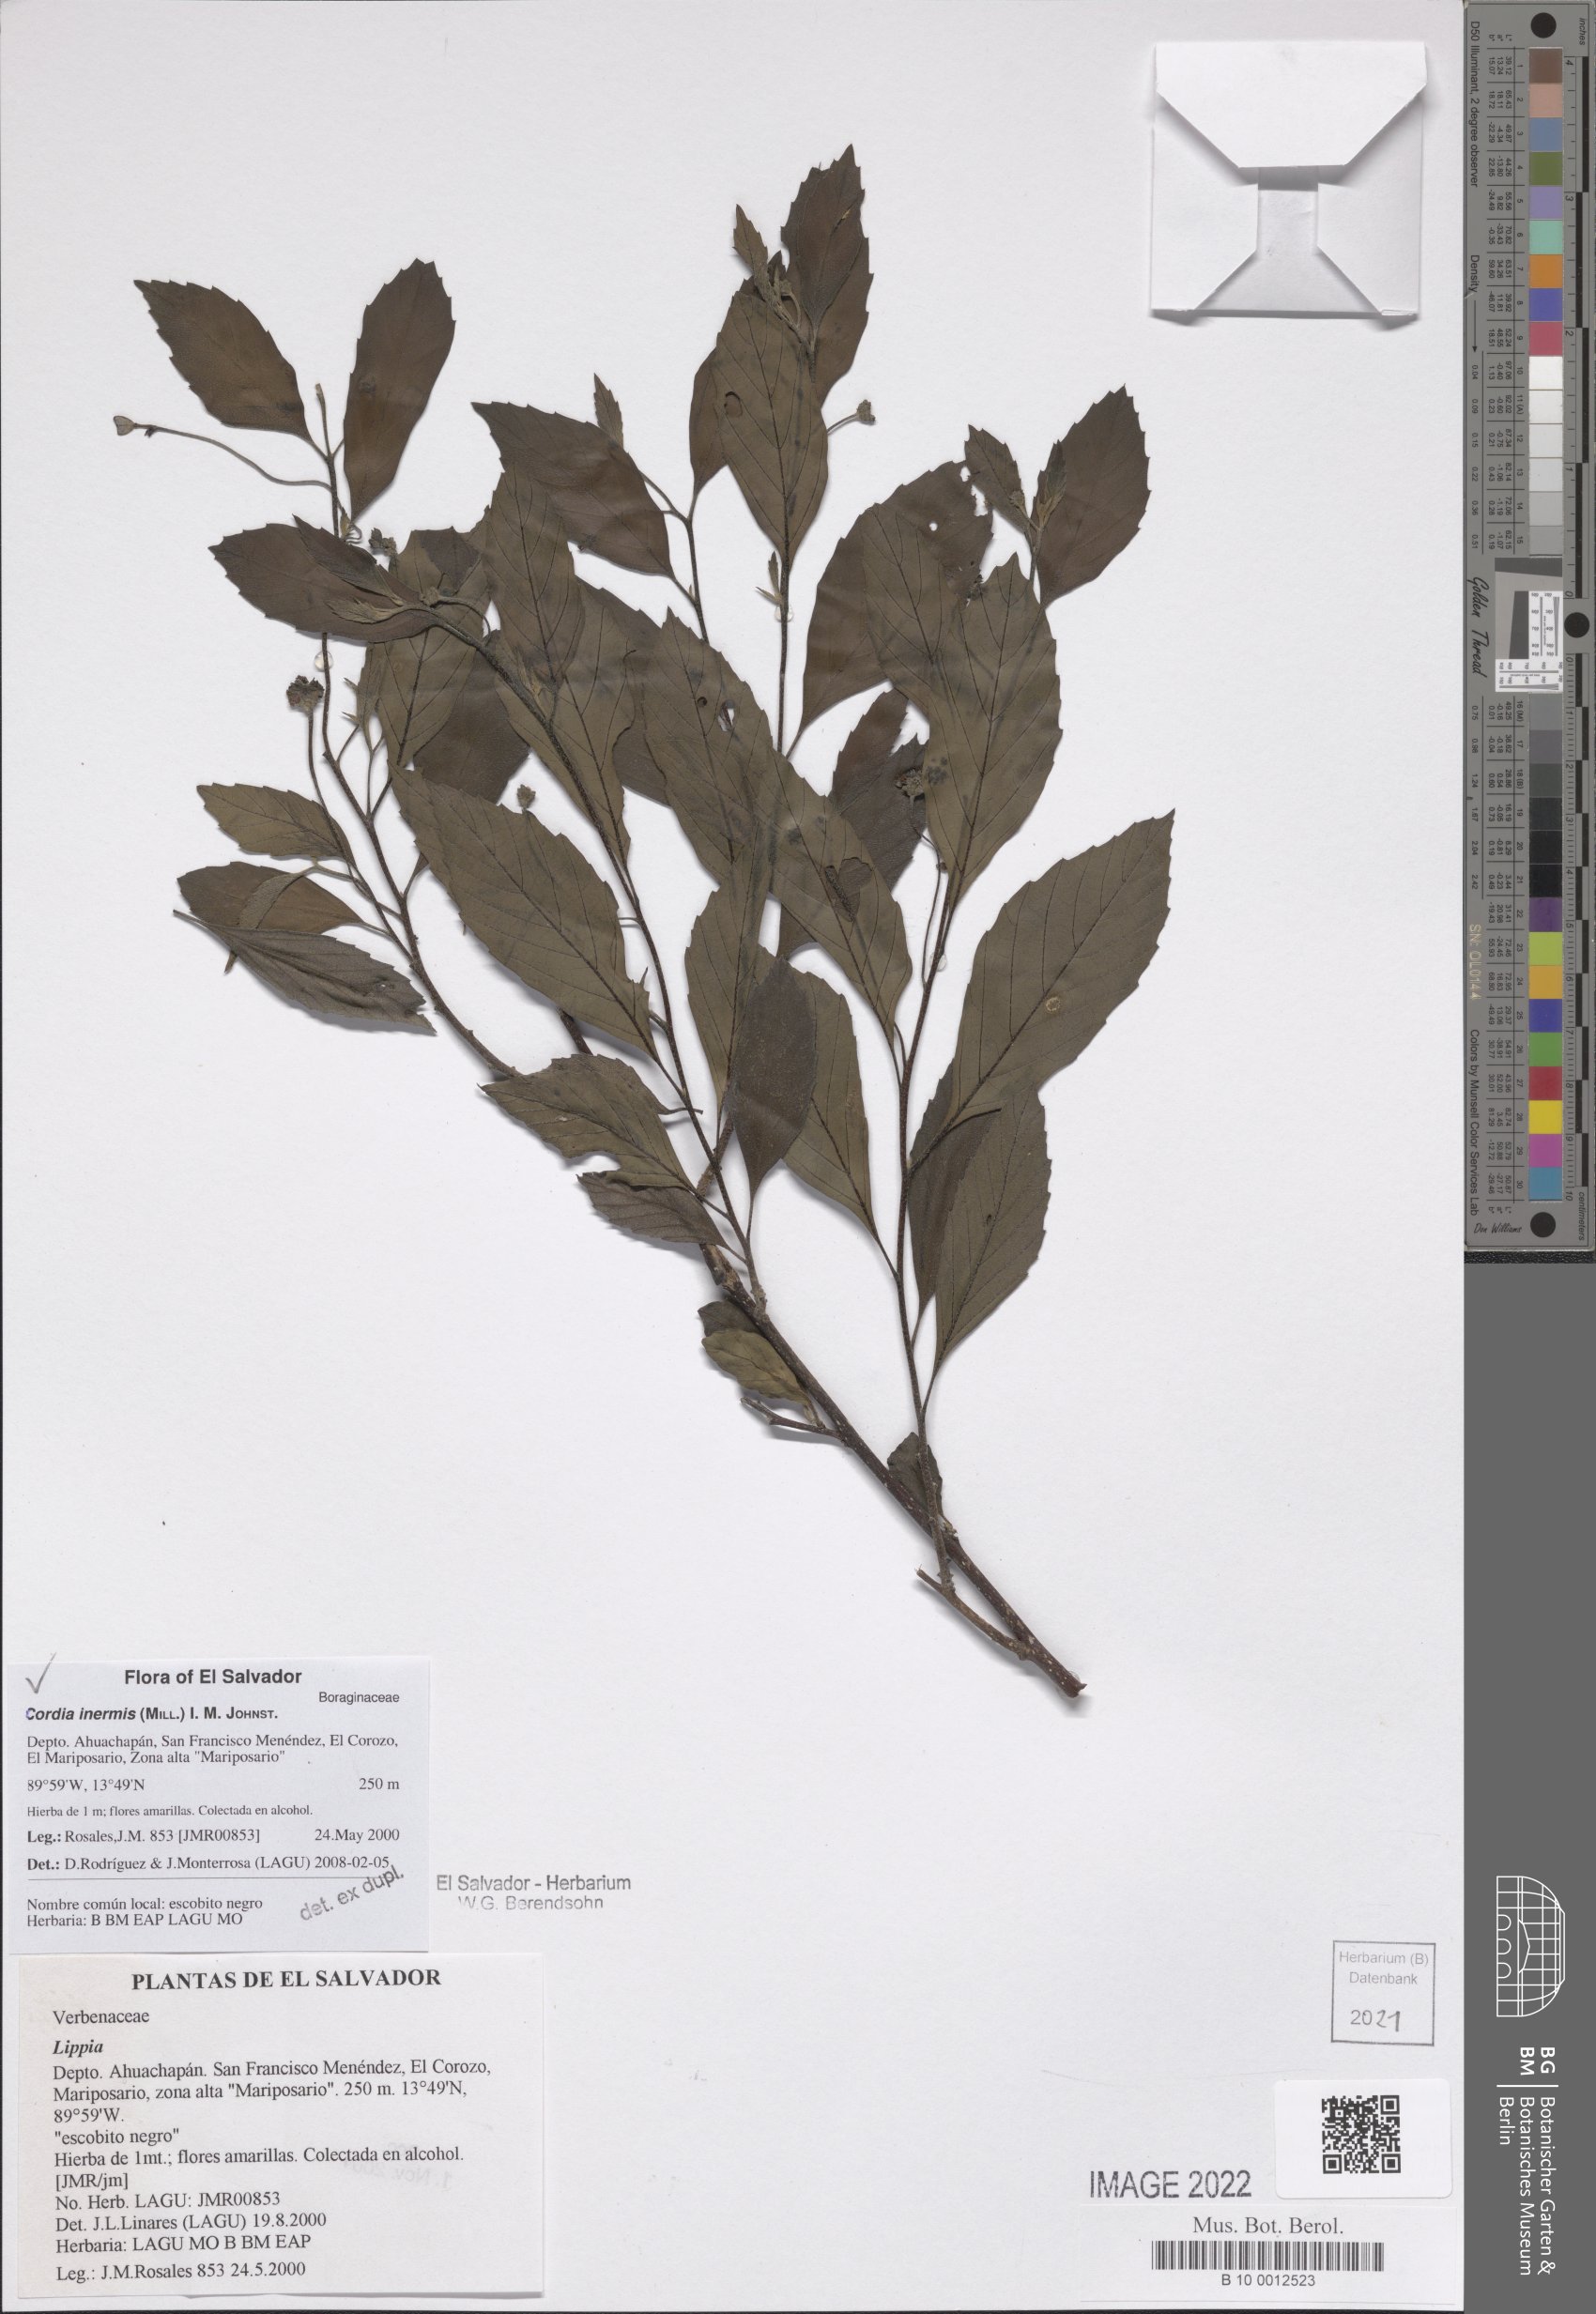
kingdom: Plantae
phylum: Tracheophyta
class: Magnoliopsida
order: Boraginales
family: Cordiaceae
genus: Varronia
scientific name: Varronia inermis
